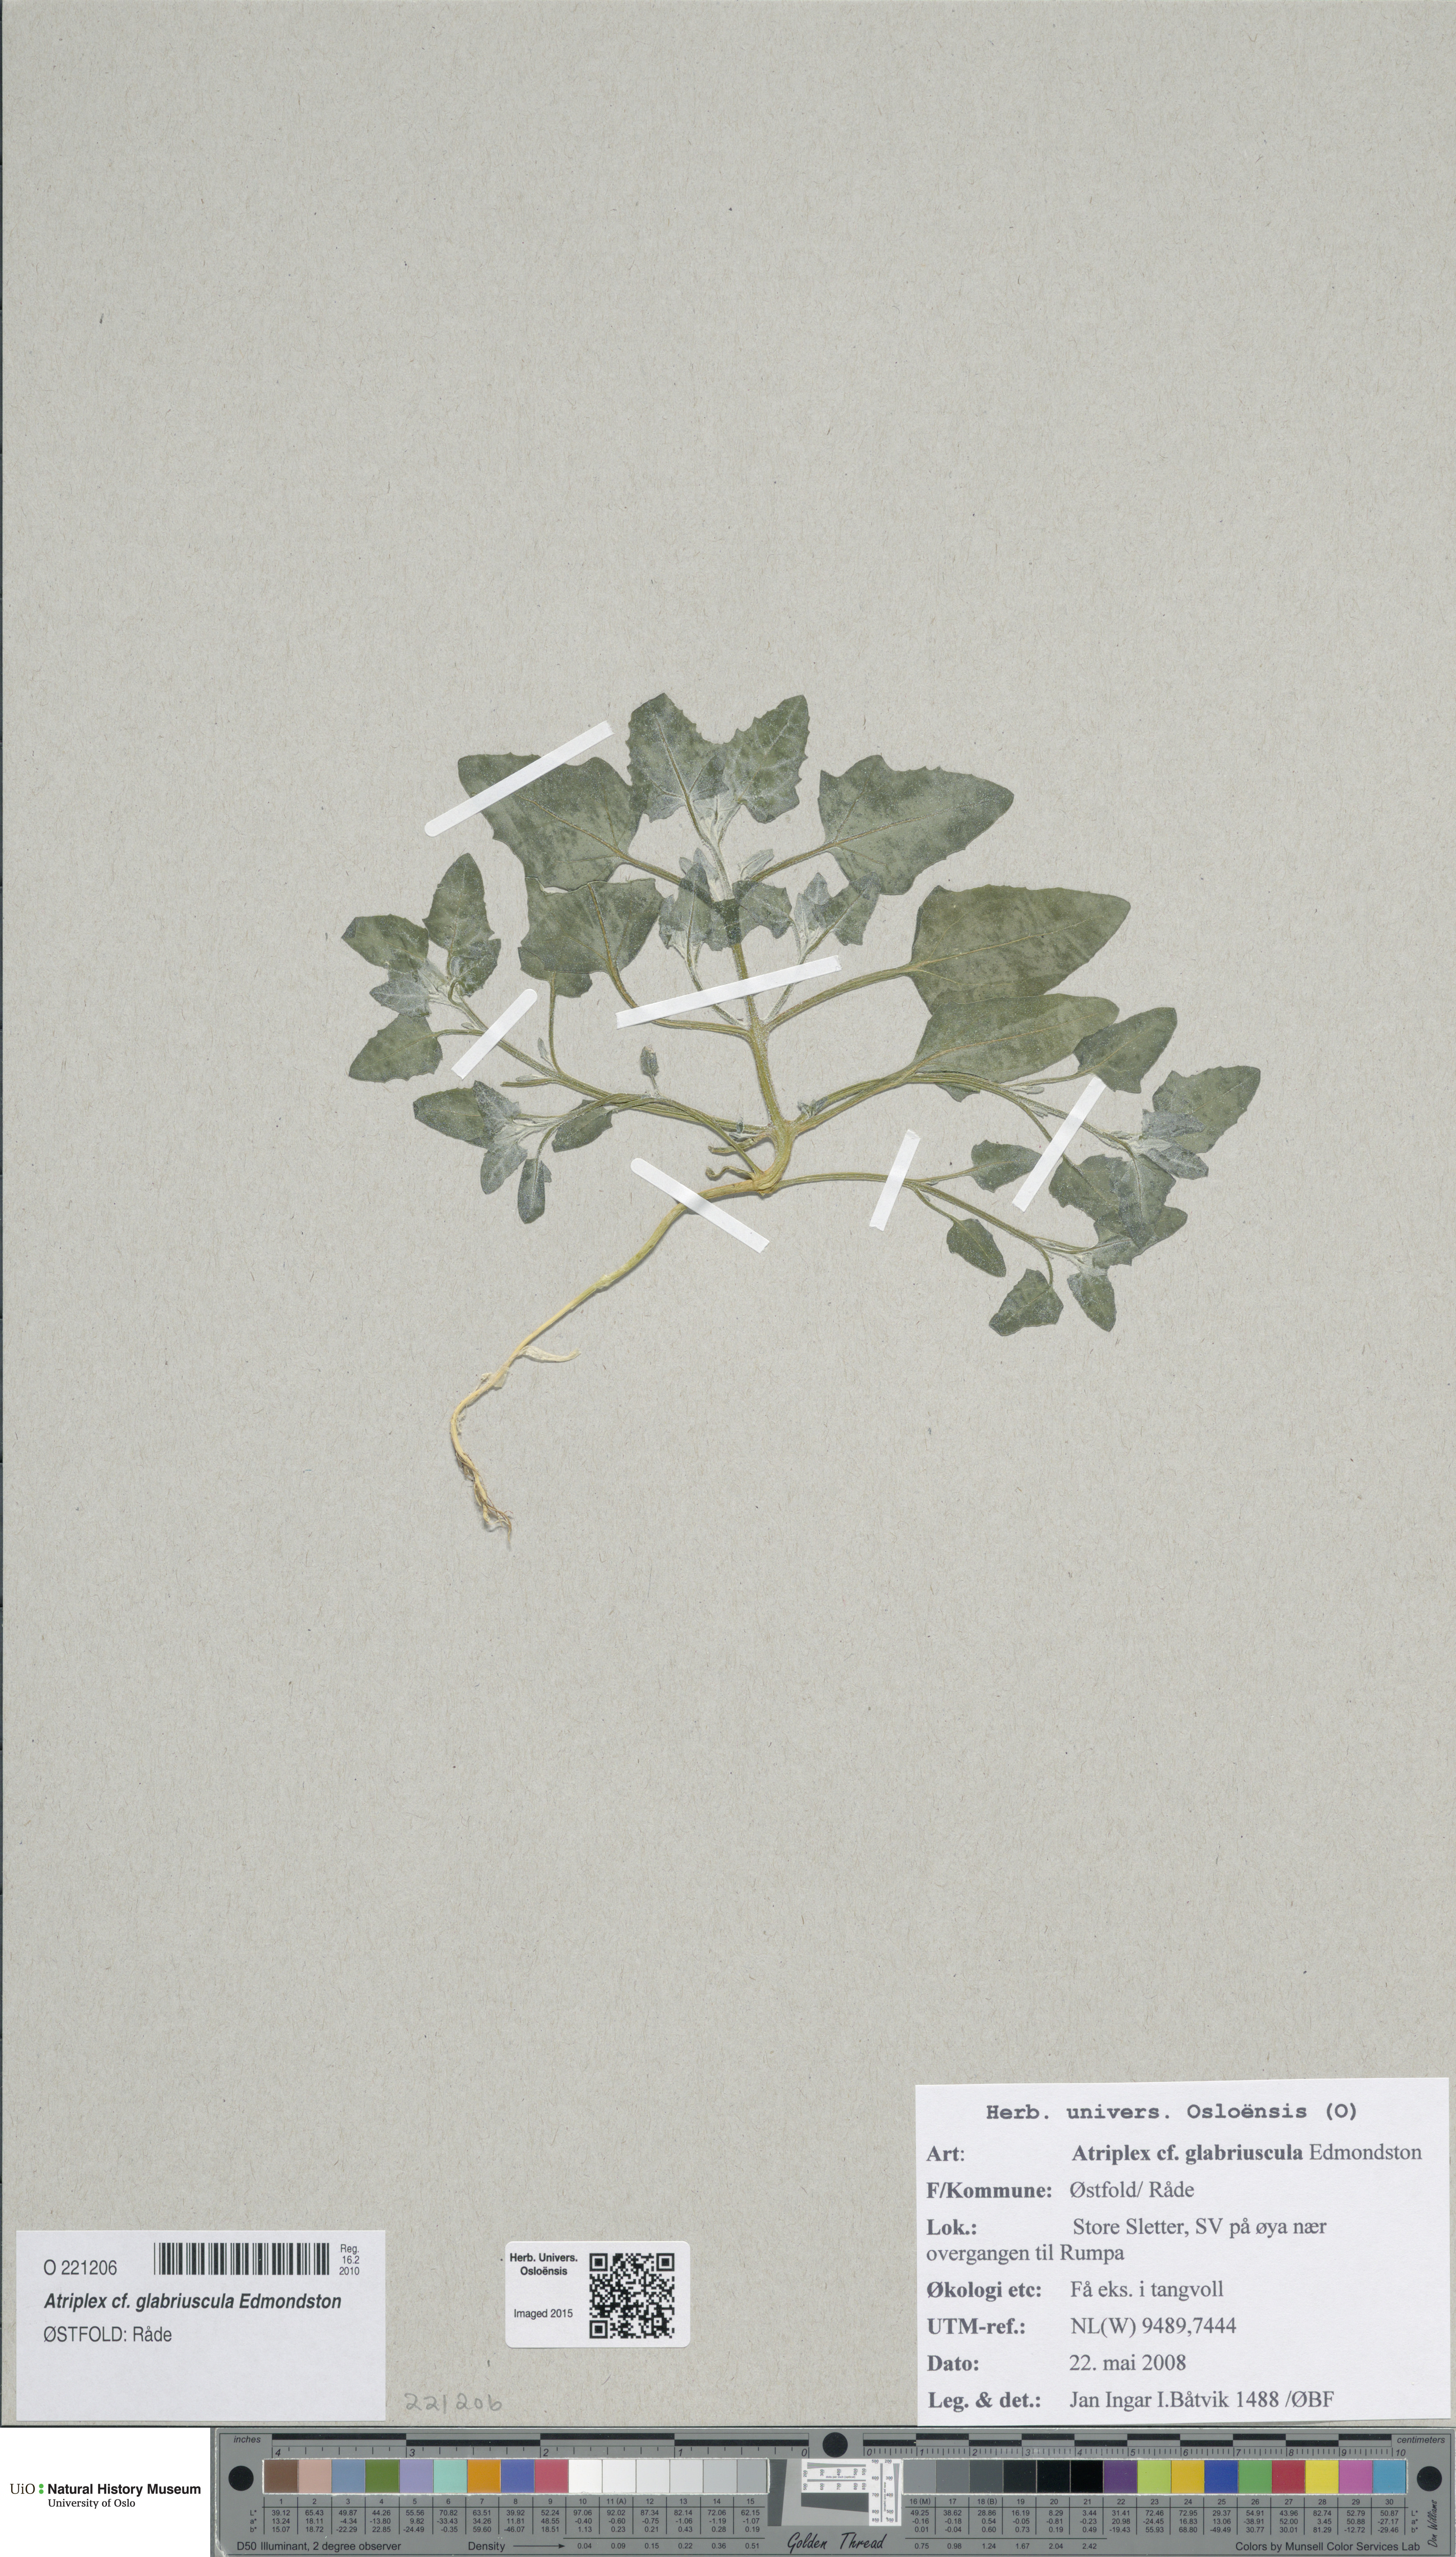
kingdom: Plantae
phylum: Tracheophyta
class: Magnoliopsida
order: Caryophyllales
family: Amaranthaceae
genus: Atriplex
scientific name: Atriplex glabriuscula
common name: Babington's orache
